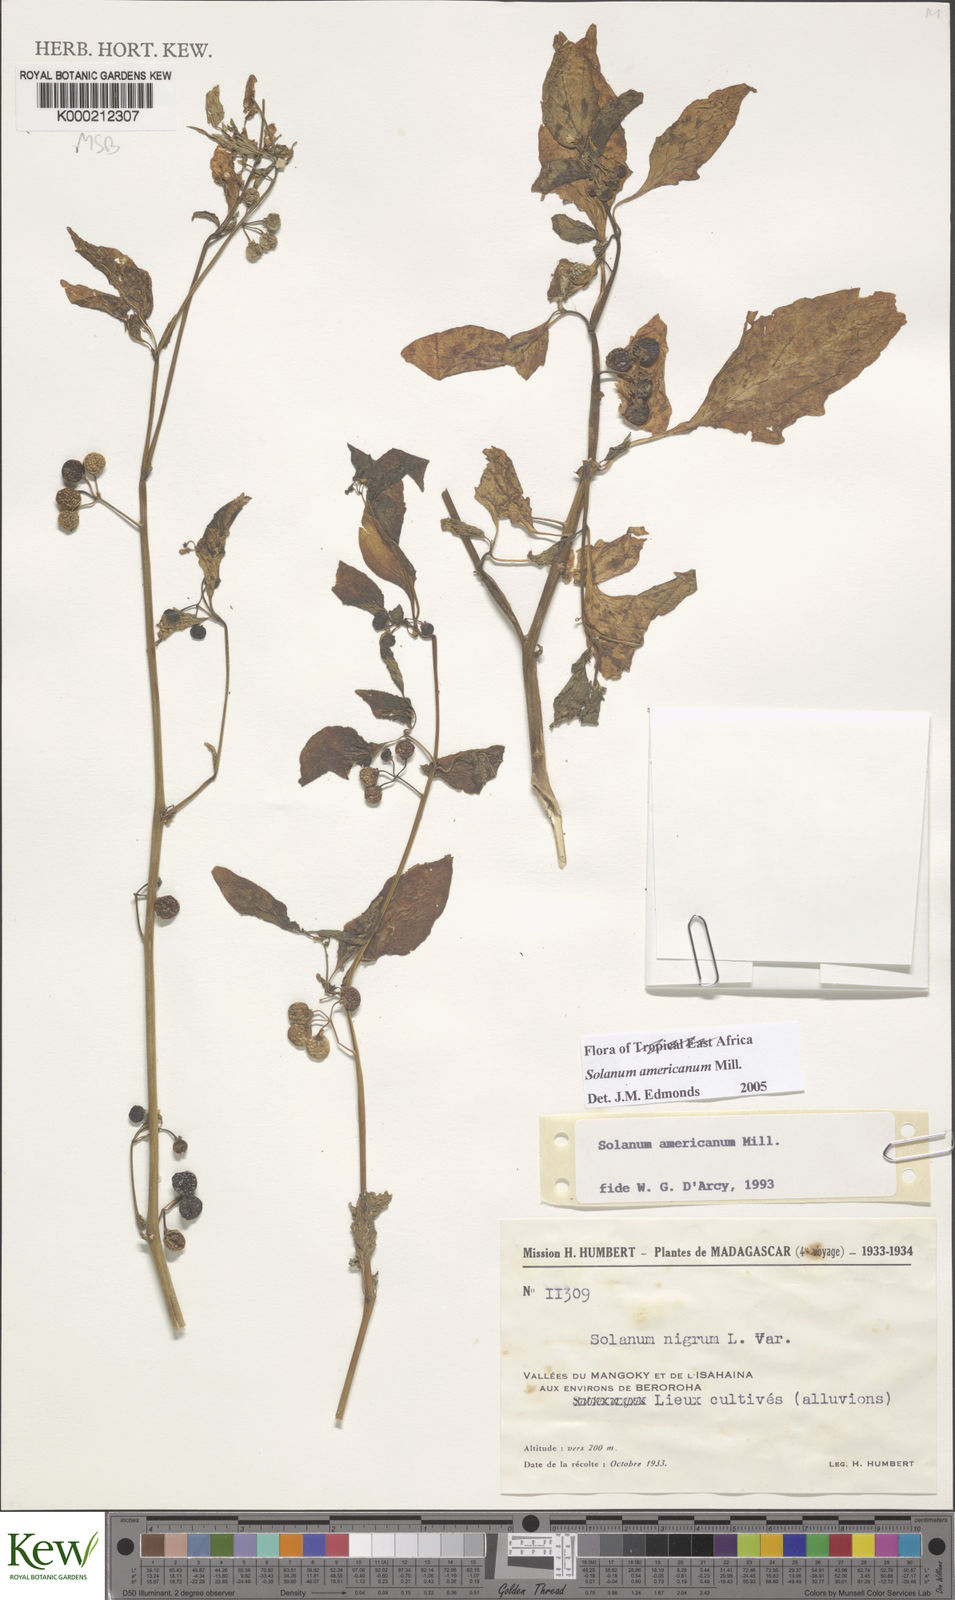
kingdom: Plantae
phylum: Tracheophyta
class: Magnoliopsida
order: Solanales
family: Solanaceae
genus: Solanum
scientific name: Solanum americanum
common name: American black nightshade
